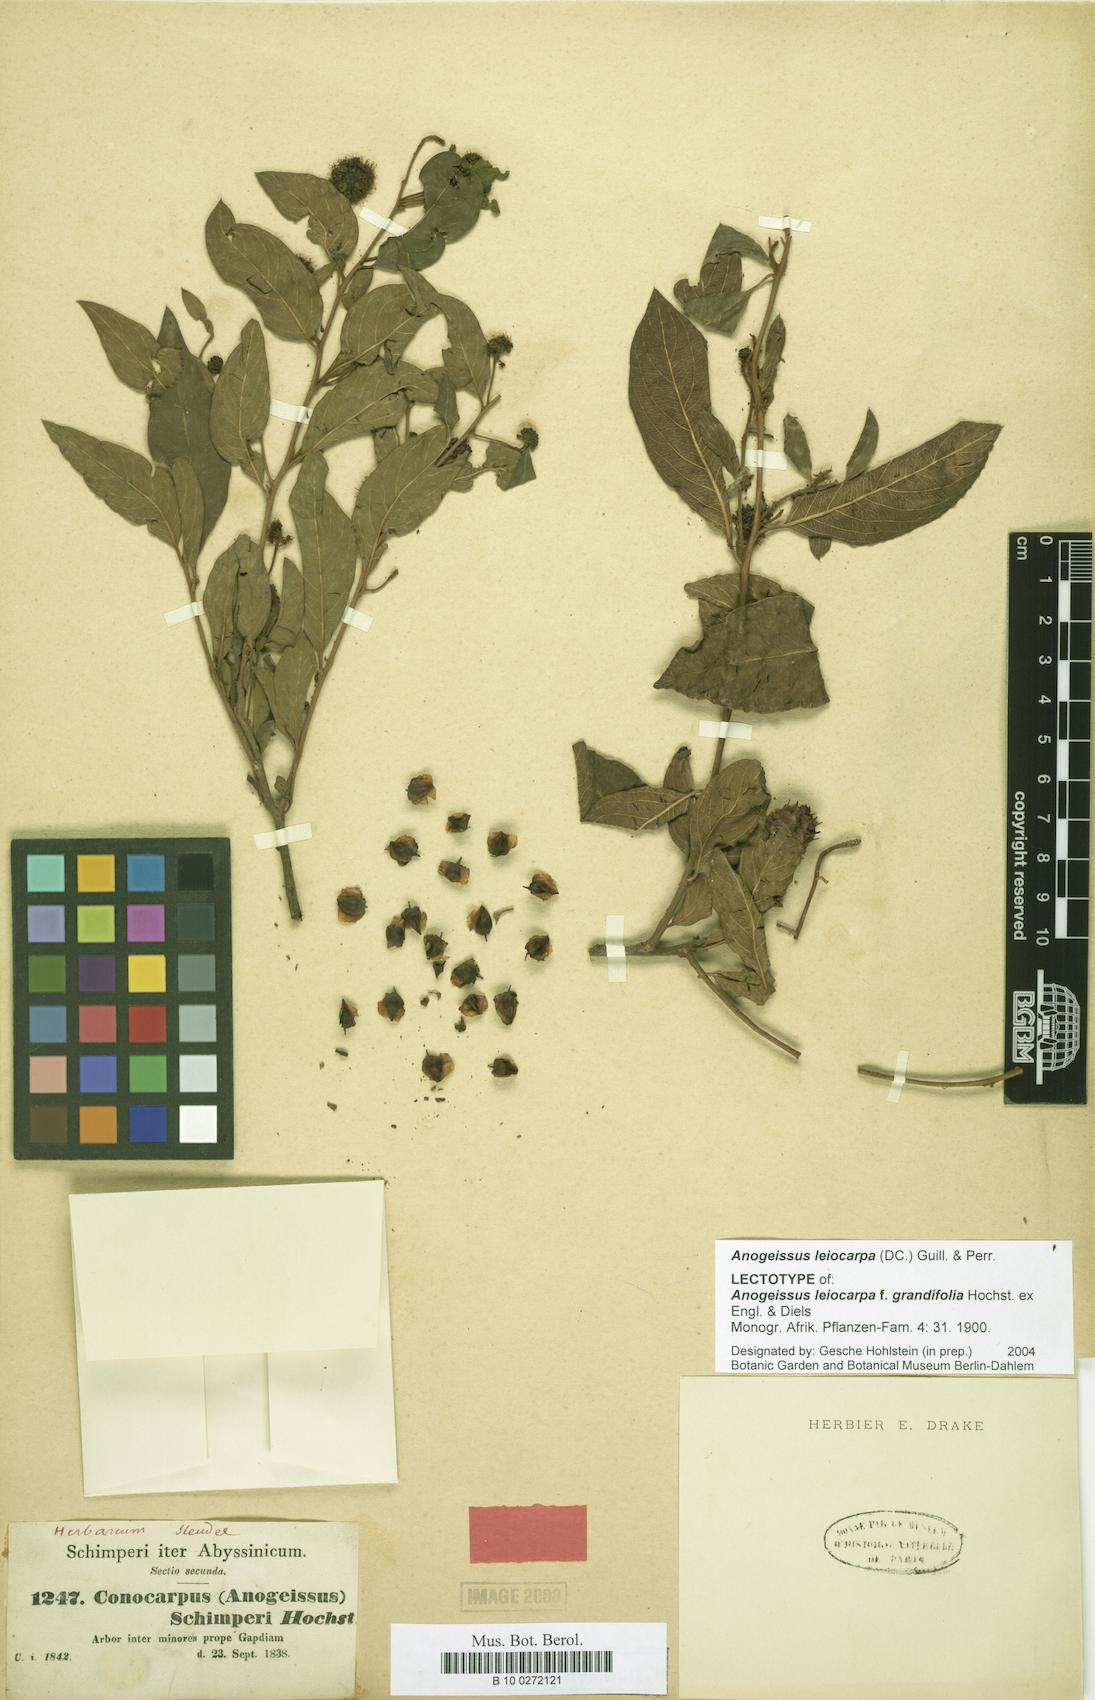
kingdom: Plantae
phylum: Tracheophyta
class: Magnoliopsida
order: Myrtales
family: Combretaceae
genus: Terminalia
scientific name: Terminalia leiocarpa
